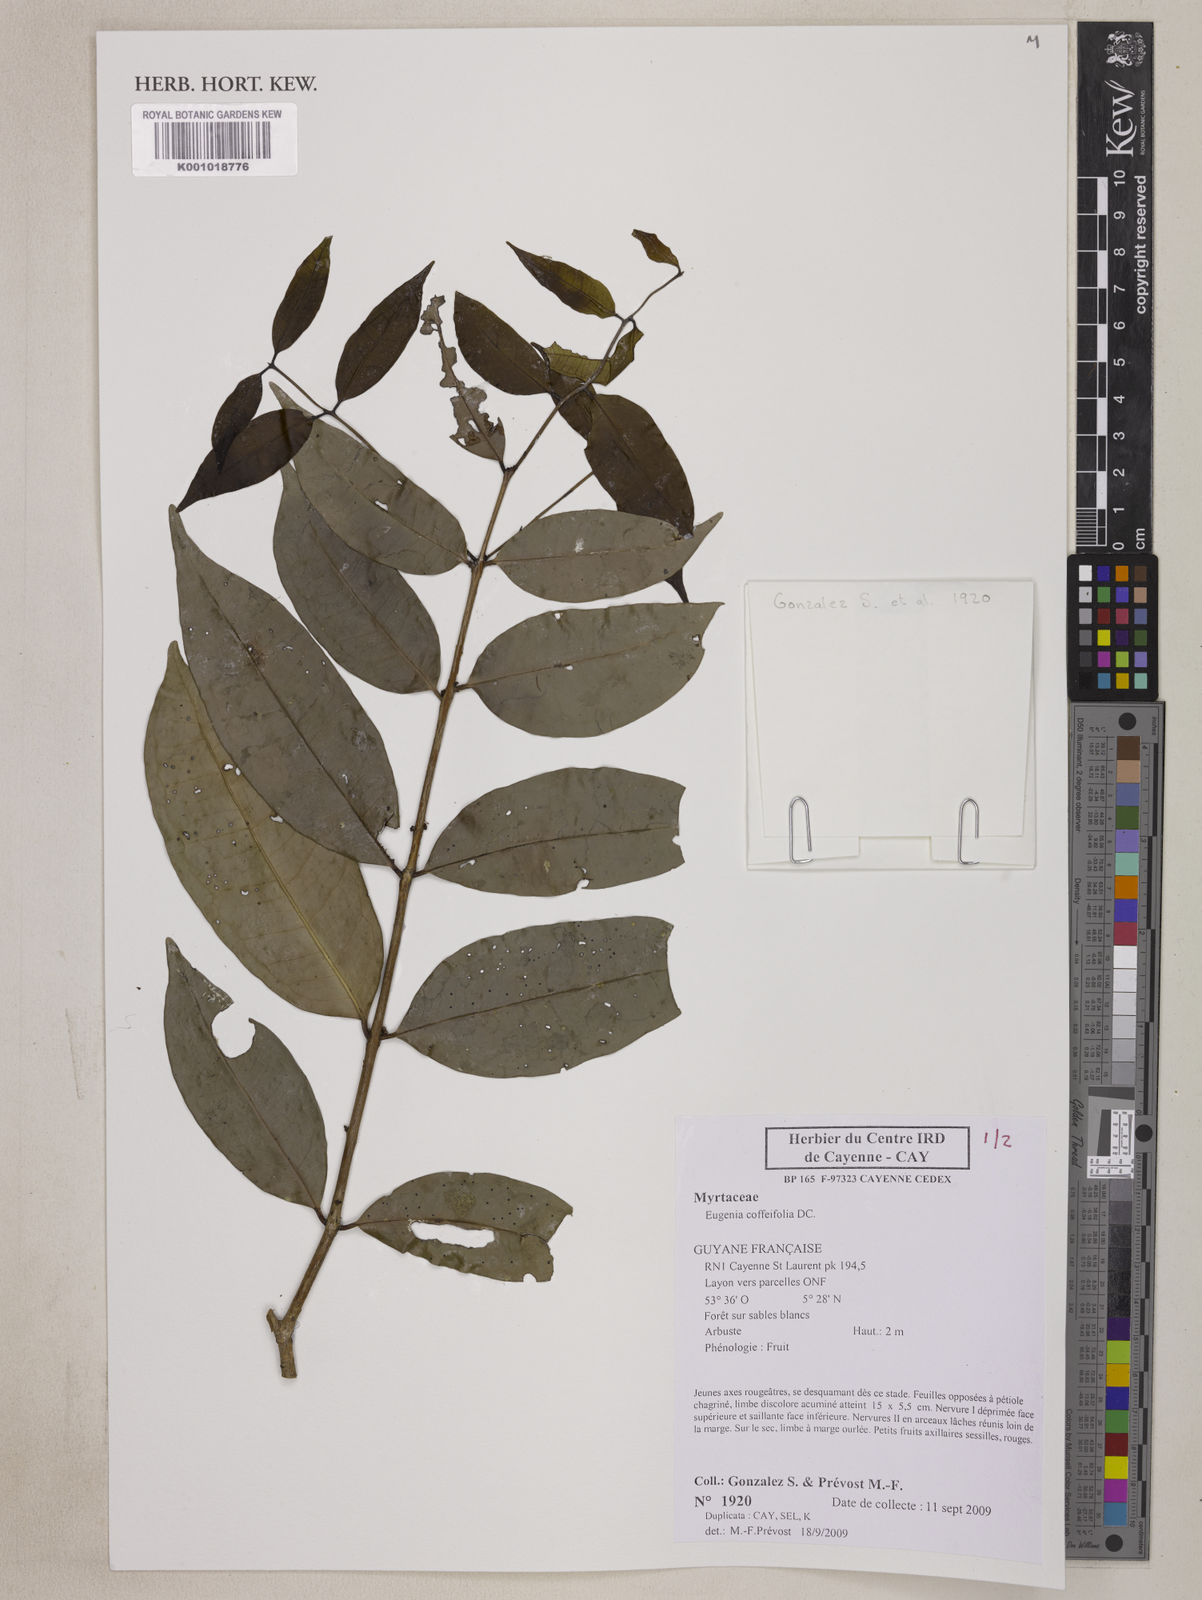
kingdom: Plantae
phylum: Tracheophyta
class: Magnoliopsida
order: Myrtales
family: Myrtaceae
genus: Eugenia
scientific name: Eugenia coffeifolia
